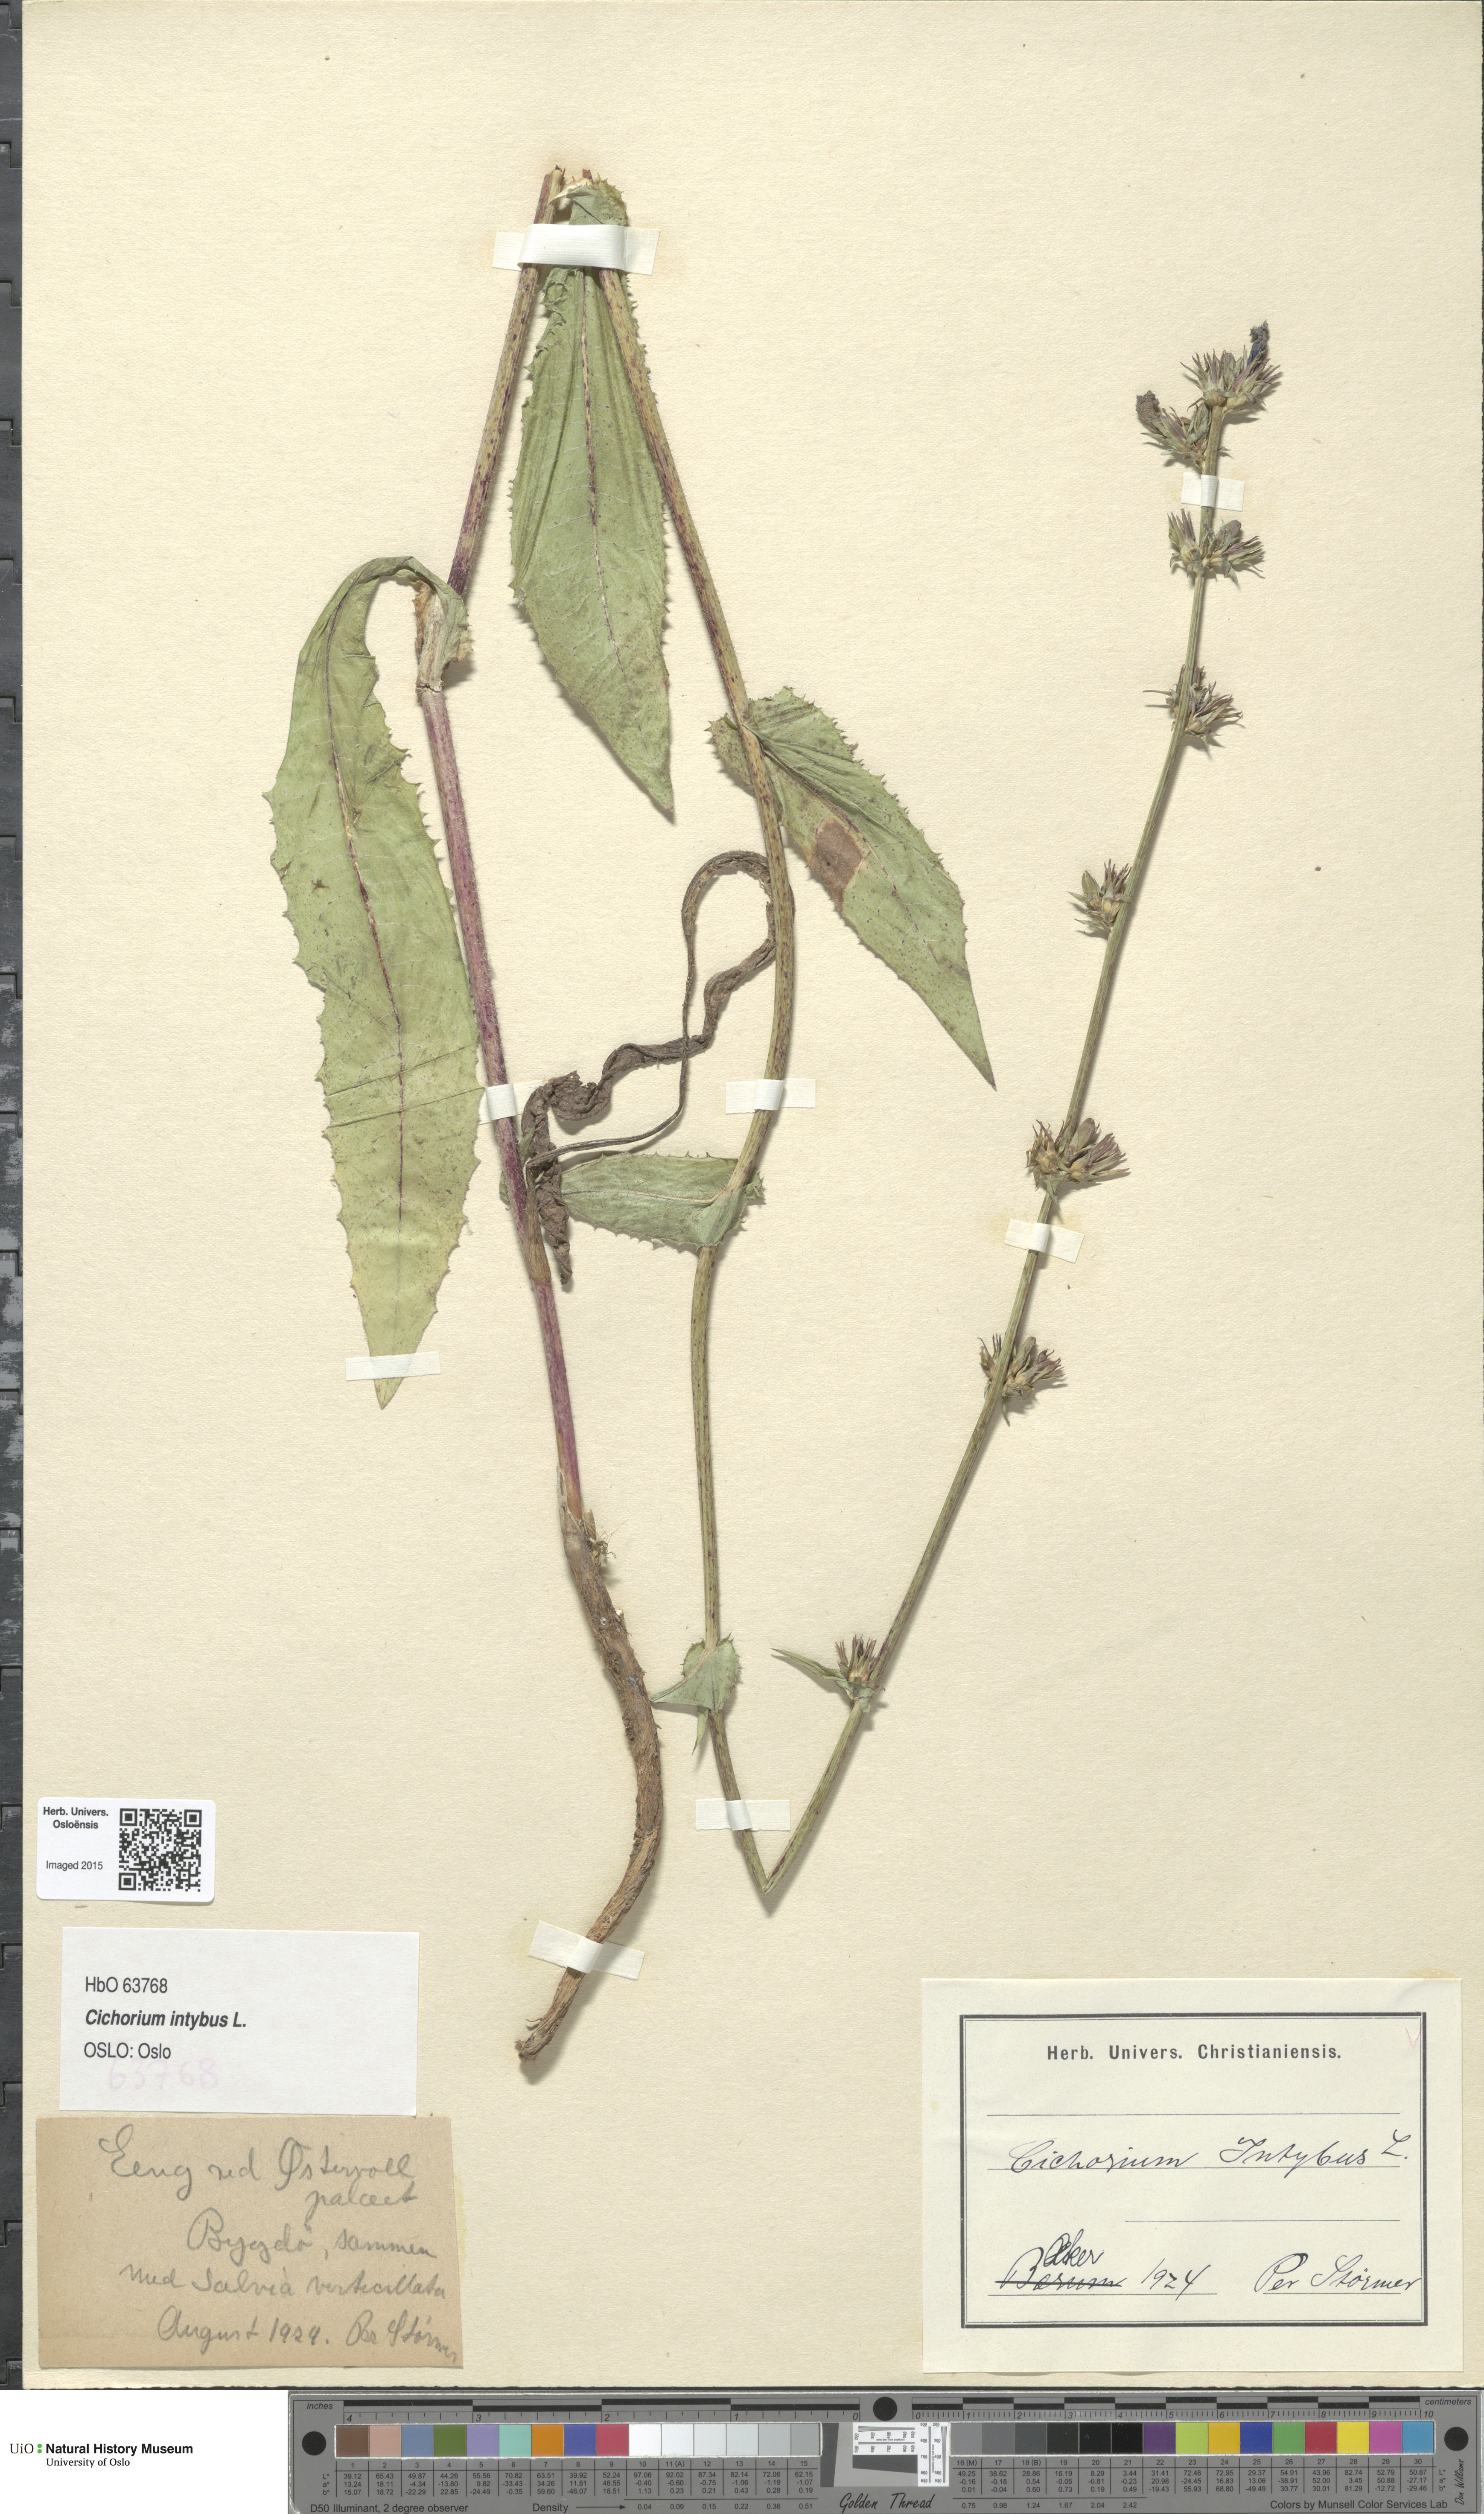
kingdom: Plantae
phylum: Tracheophyta
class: Magnoliopsida
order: Asterales
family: Asteraceae
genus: Cichorium
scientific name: Cichorium intybus
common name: Chicory
